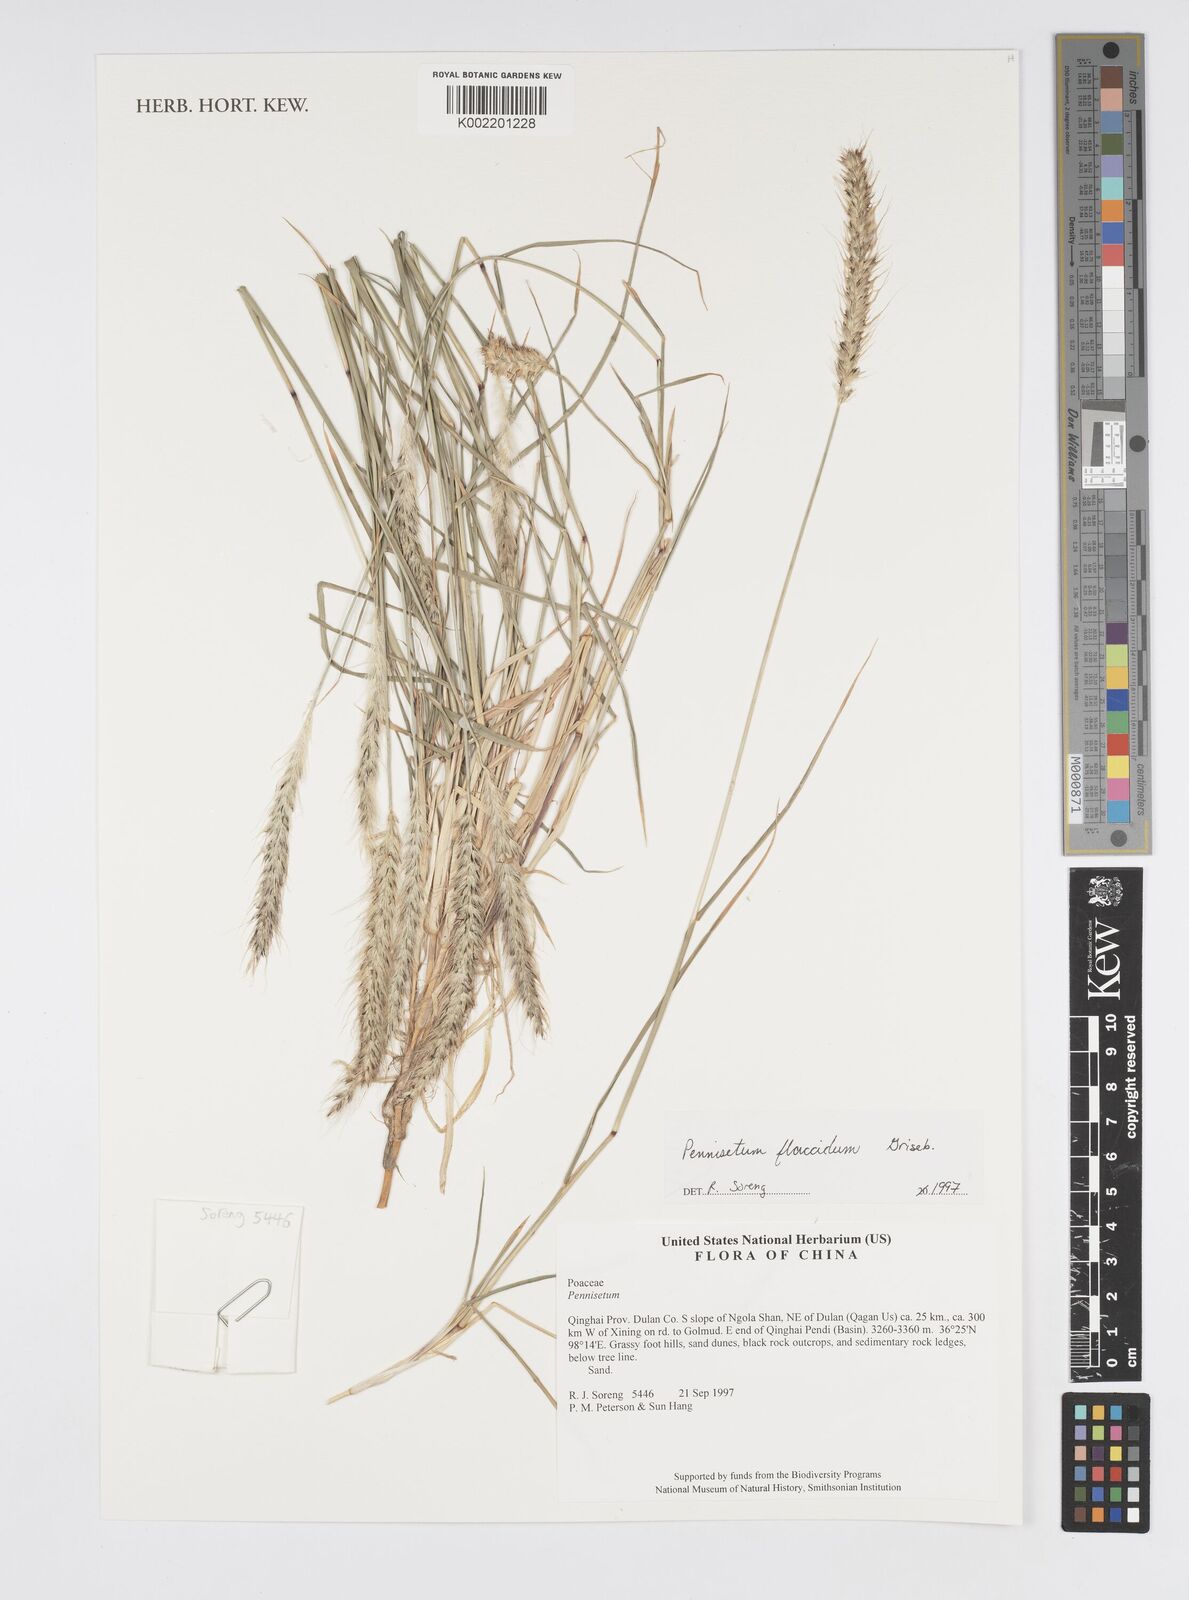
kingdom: Plantae
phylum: Tracheophyta
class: Liliopsida
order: Poales
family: Poaceae
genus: Cenchrus
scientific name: Cenchrus flaccidus
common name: Flaccid grass
